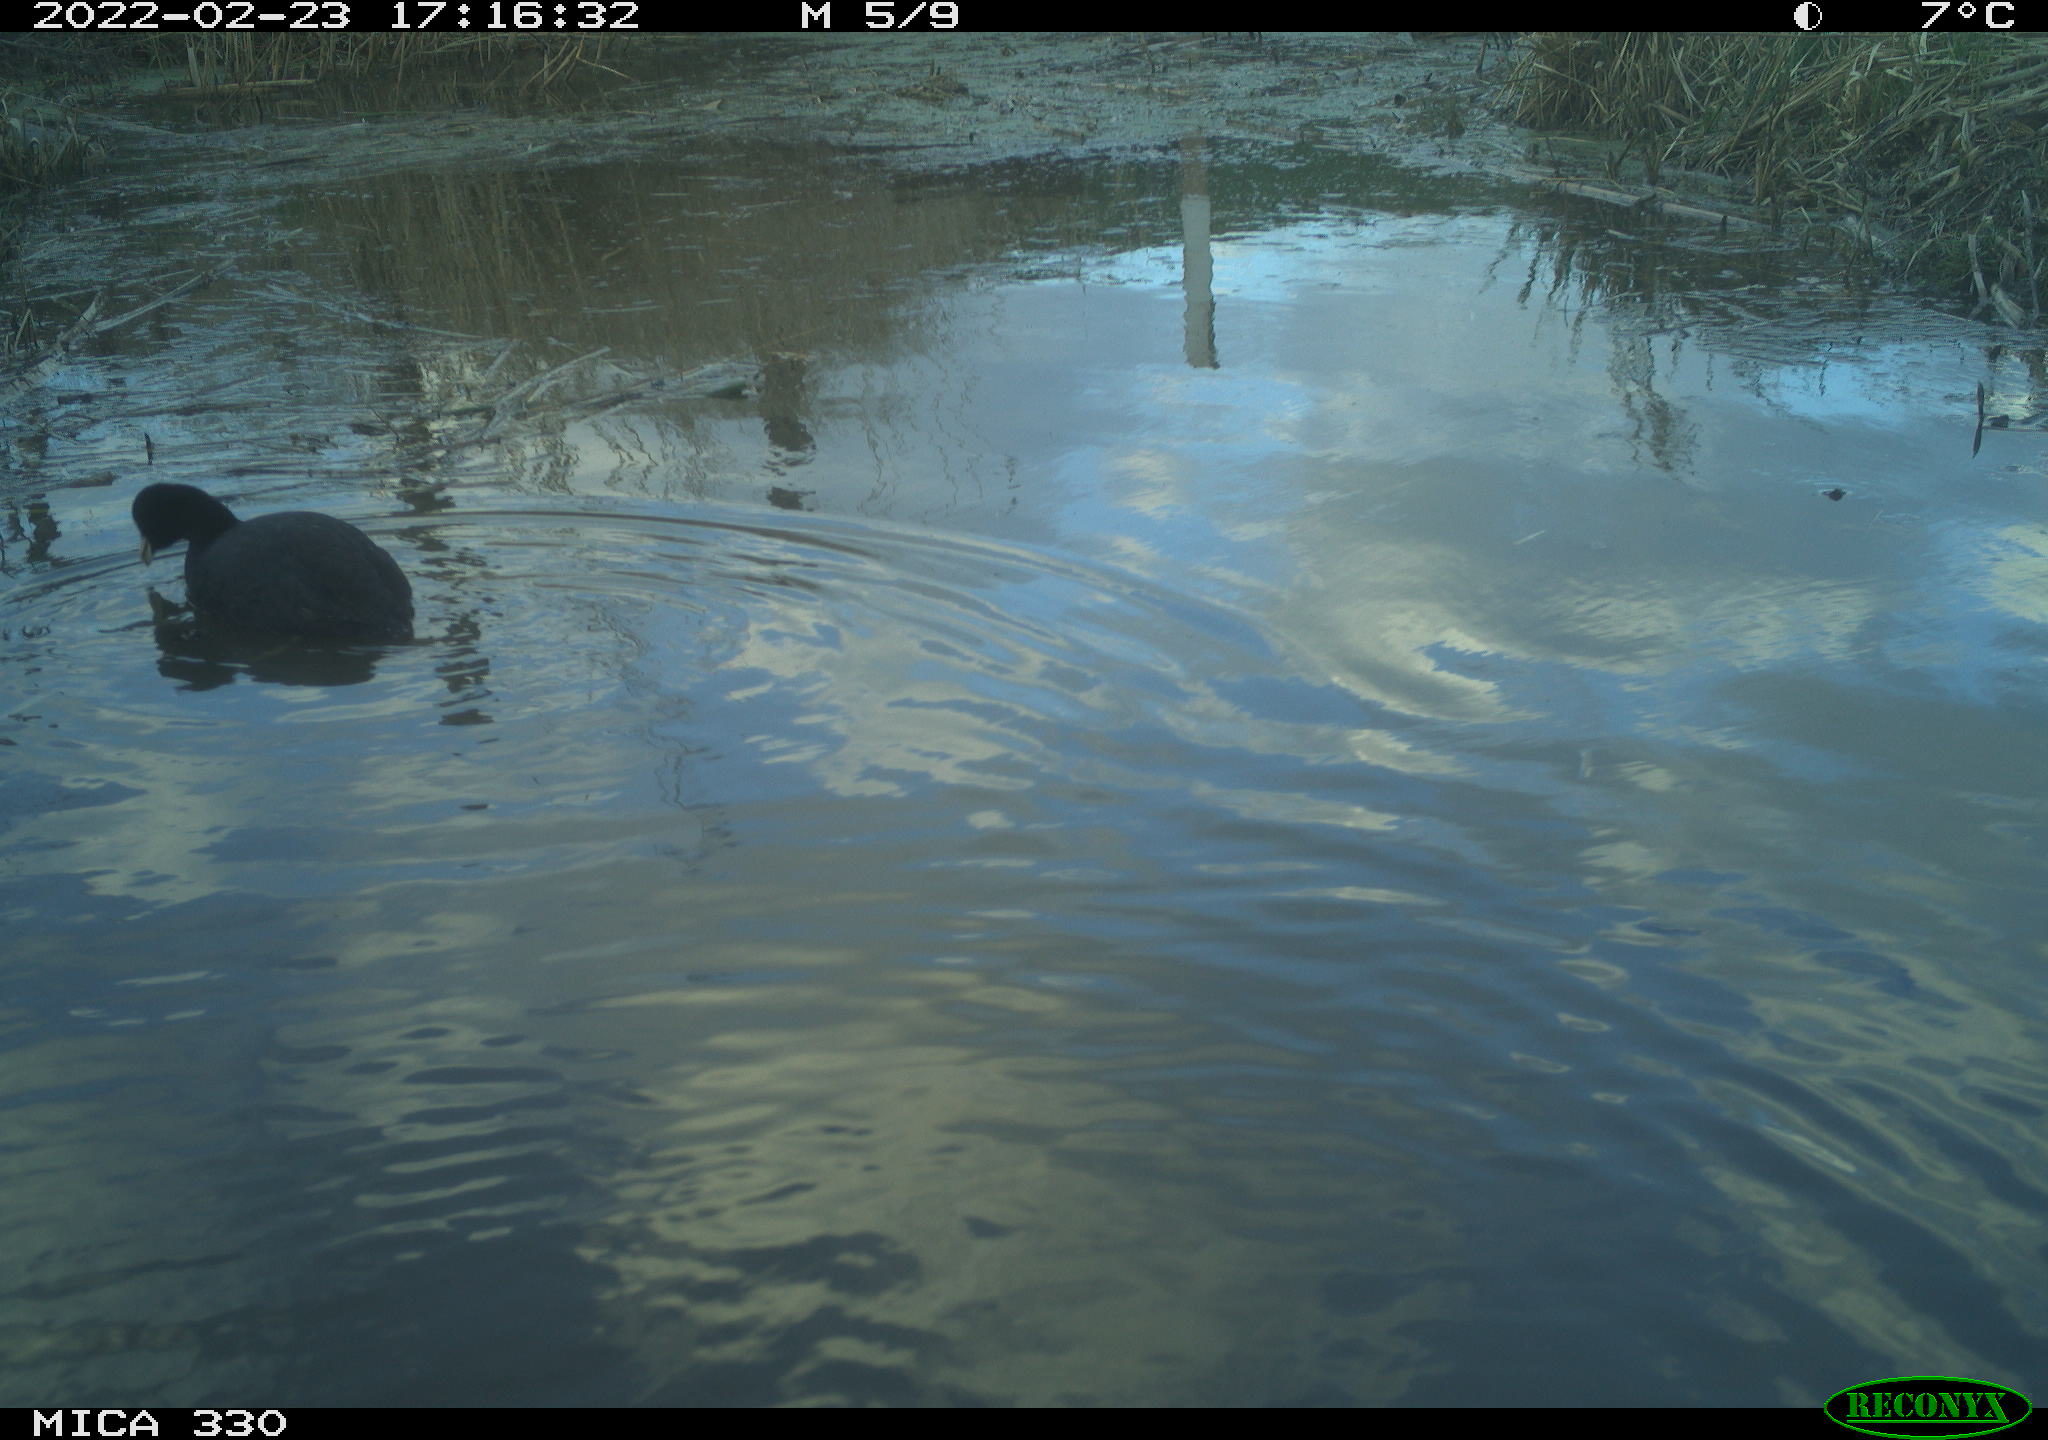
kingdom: Animalia
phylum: Chordata
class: Aves
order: Gruiformes
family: Rallidae
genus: Fulica
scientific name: Fulica atra
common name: Eurasian coot
